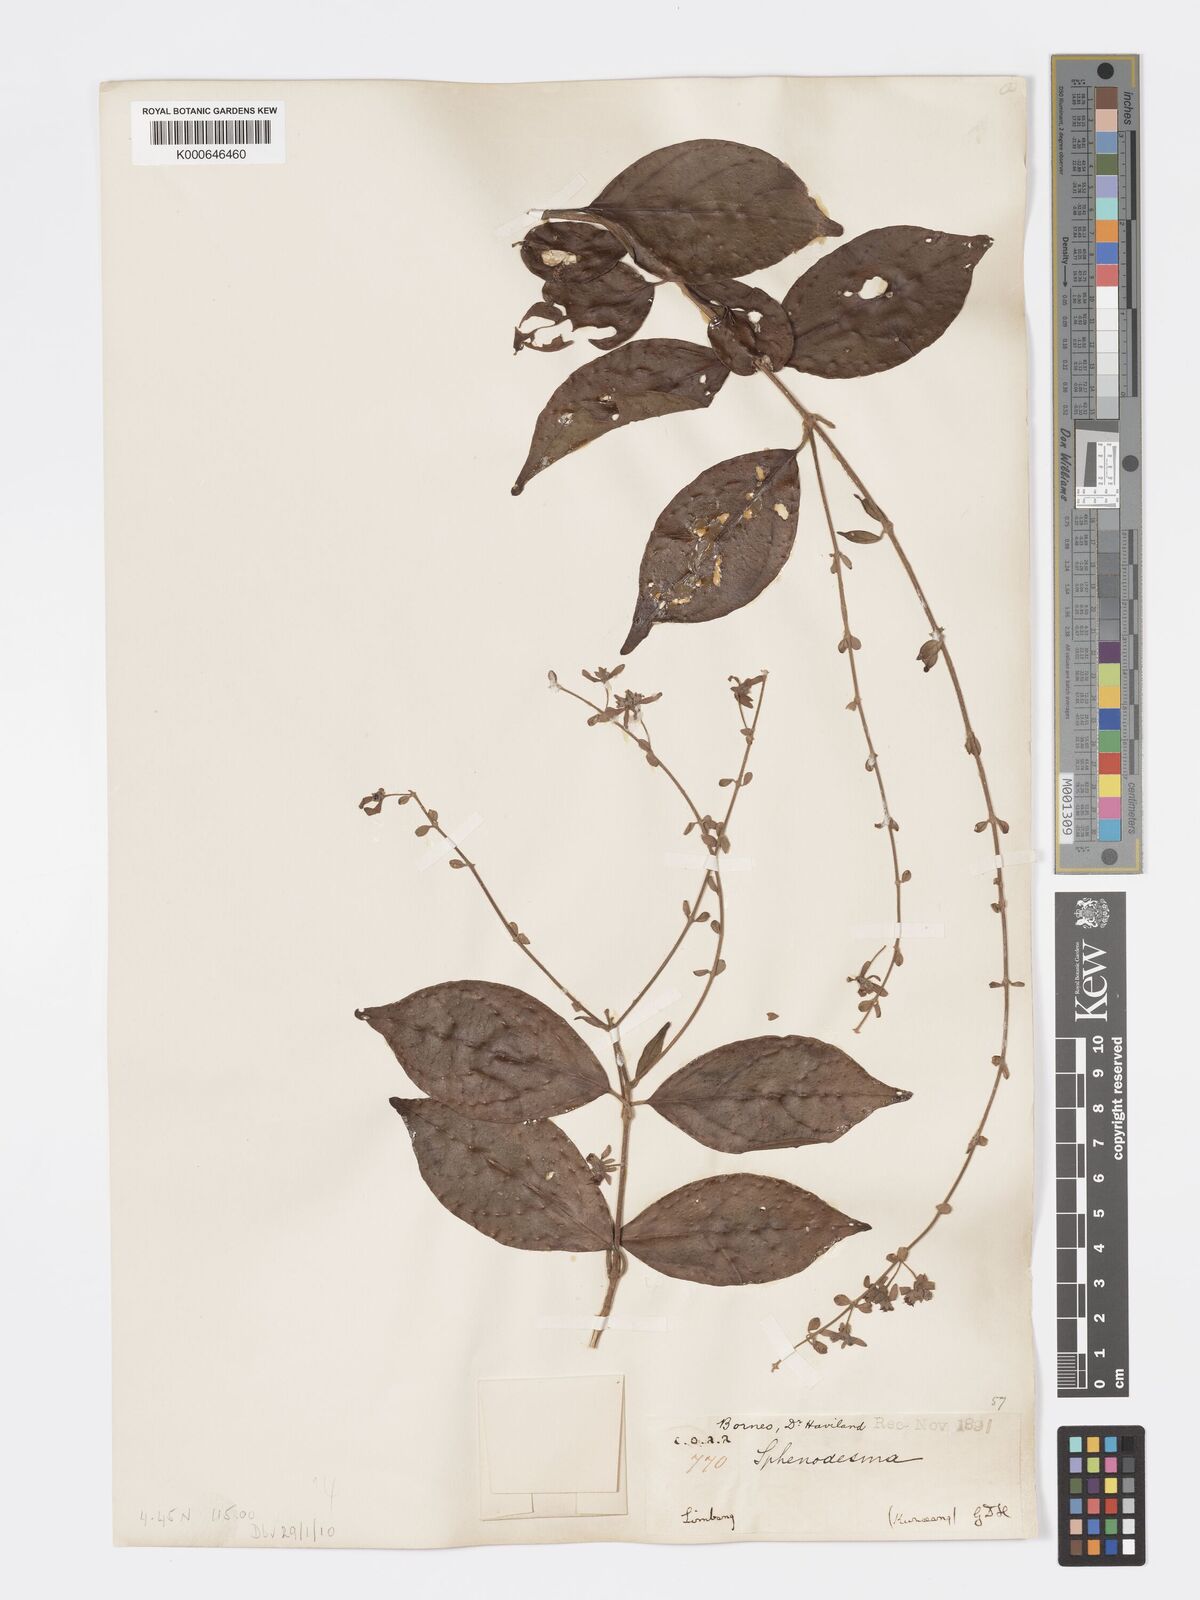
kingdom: Plantae
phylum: Tracheophyta
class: Magnoliopsida
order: Lamiales
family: Lamiaceae
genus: Sphenodesme
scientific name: Sphenodesme
